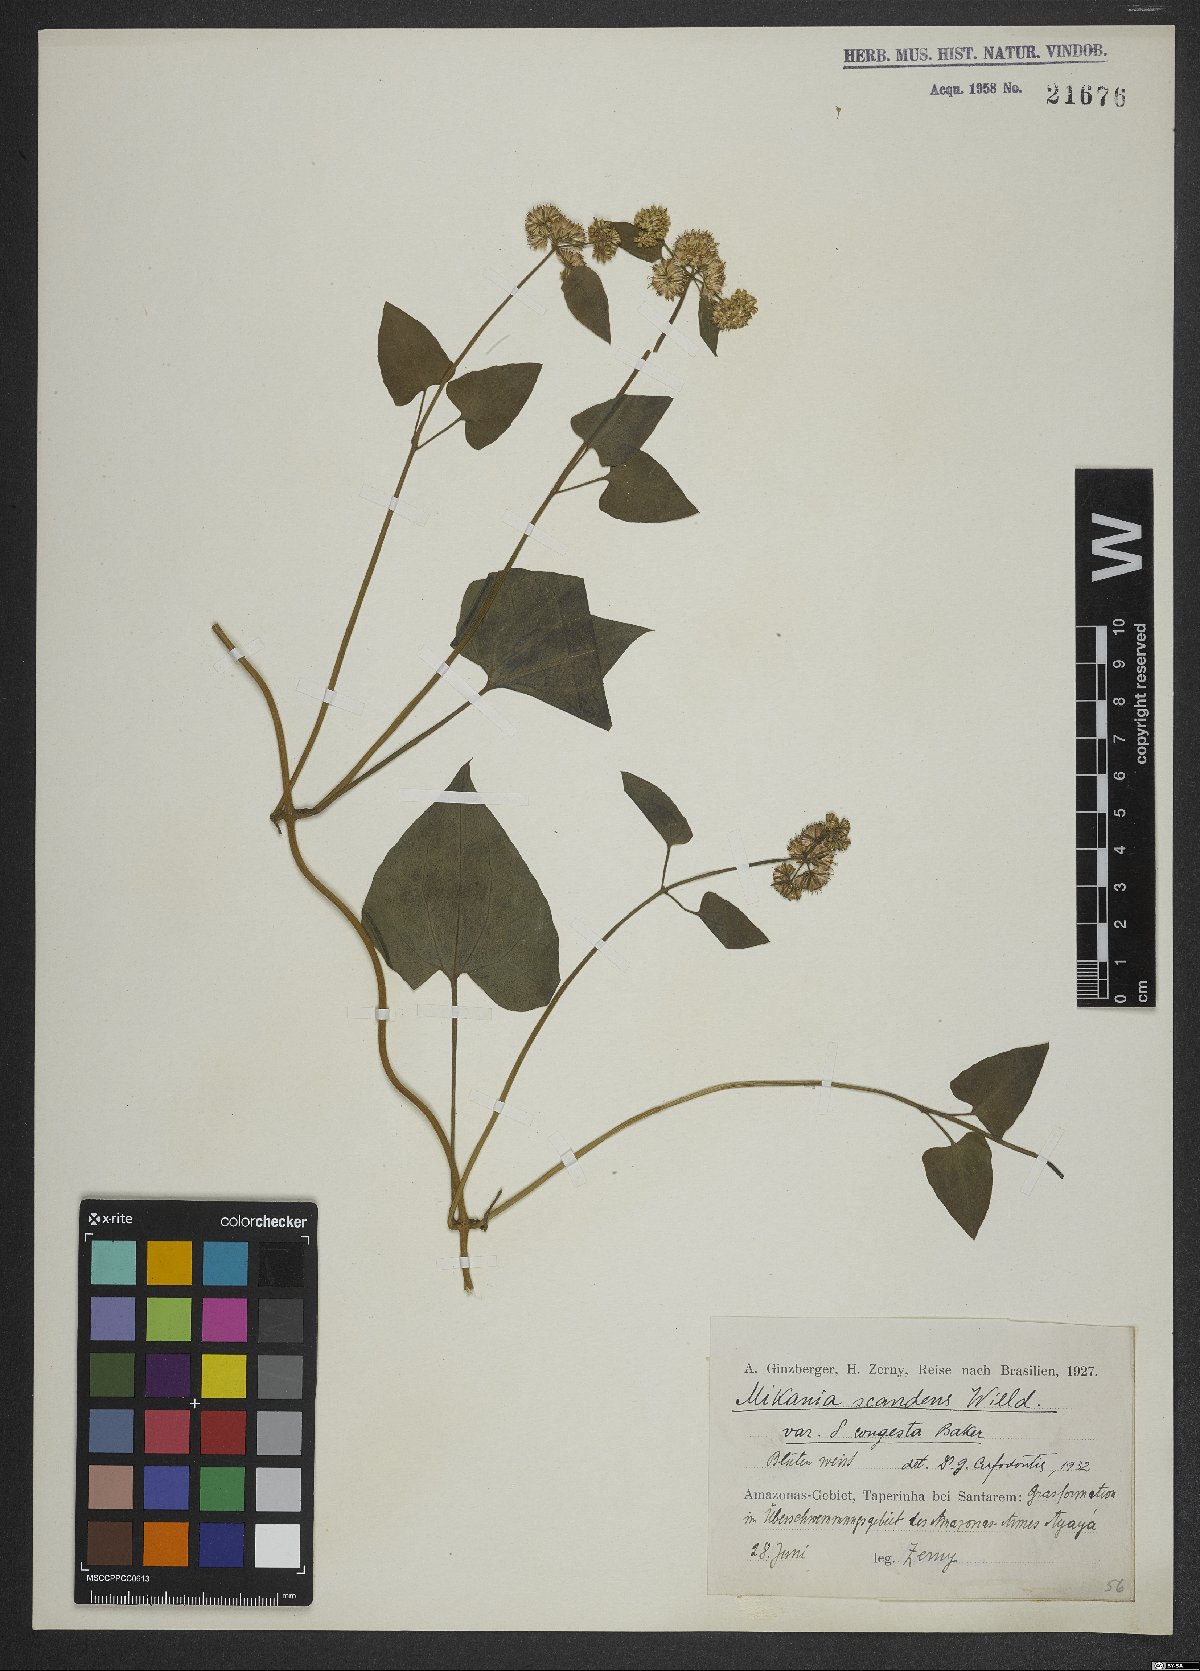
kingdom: Plantae
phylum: Tracheophyta
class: Magnoliopsida
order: Asterales
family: Asteraceae
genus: Mikania
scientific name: Mikania scandens
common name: Climbing hempvine
